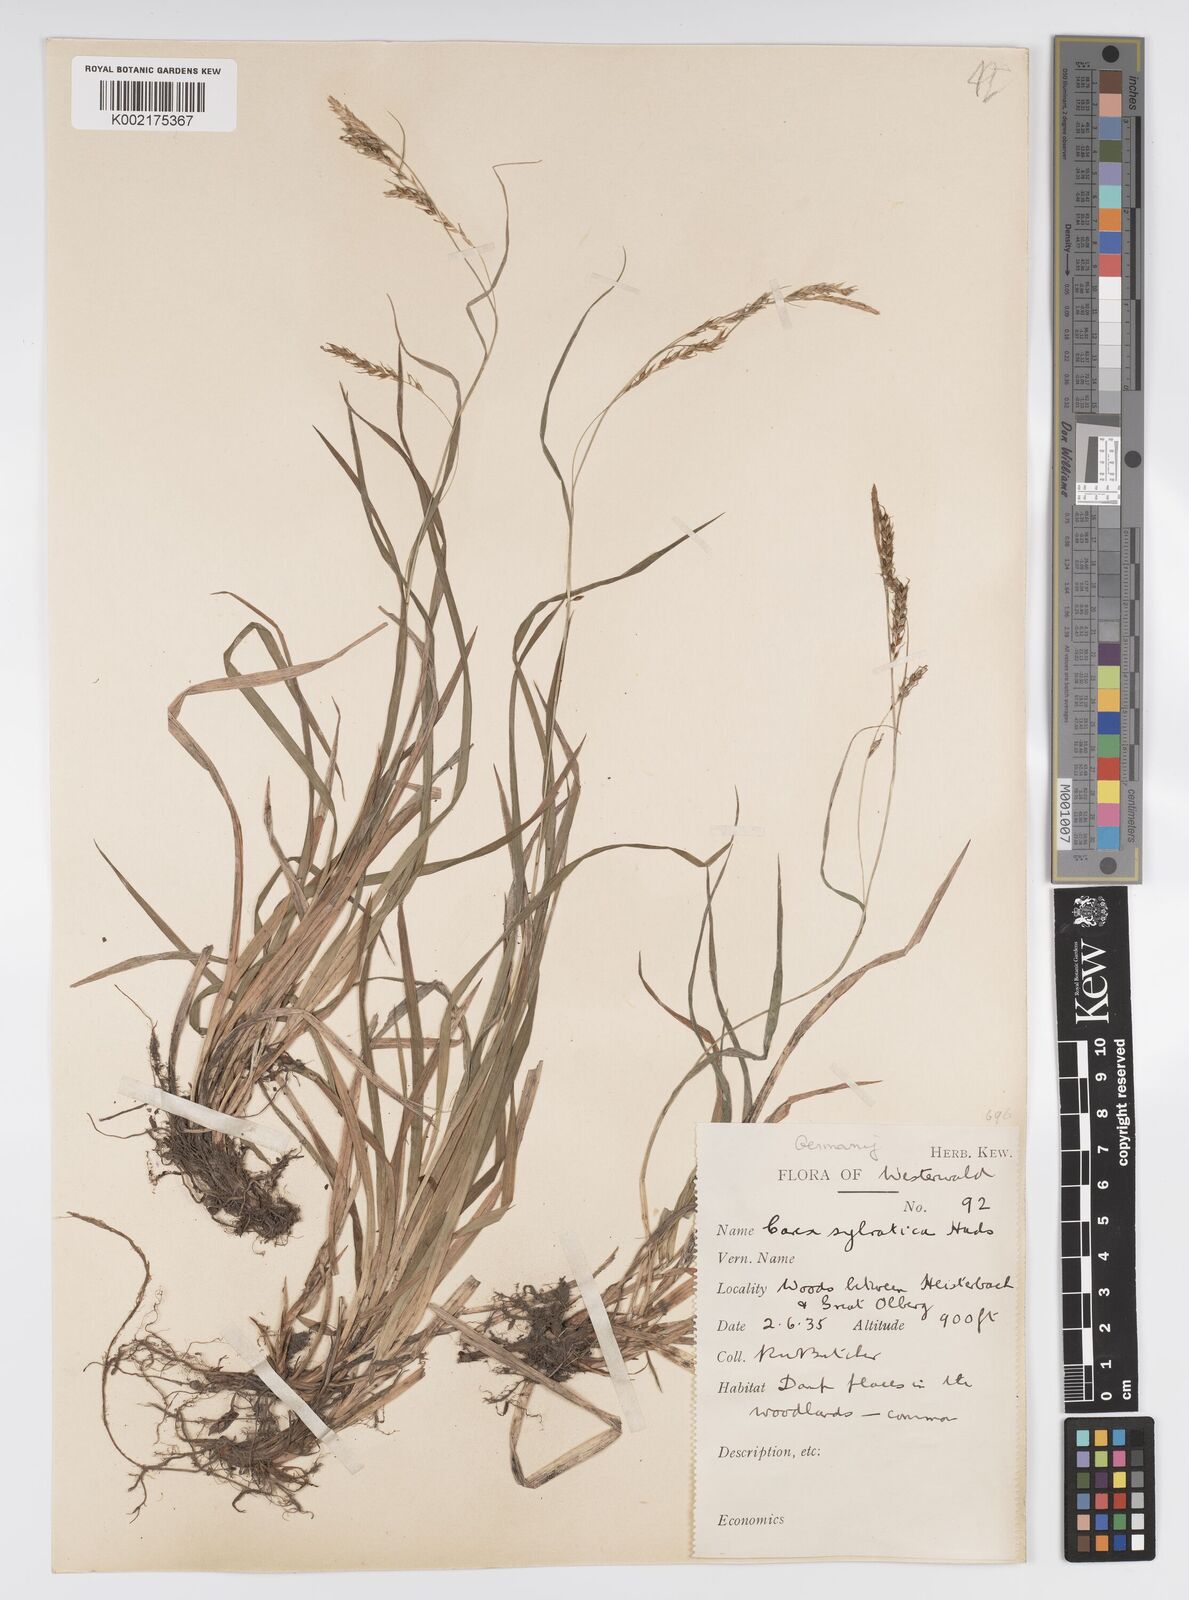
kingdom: Plantae
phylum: Tracheophyta
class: Liliopsida
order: Poales
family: Cyperaceae
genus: Carex
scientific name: Carex sylvatica
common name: Wood-sedge
